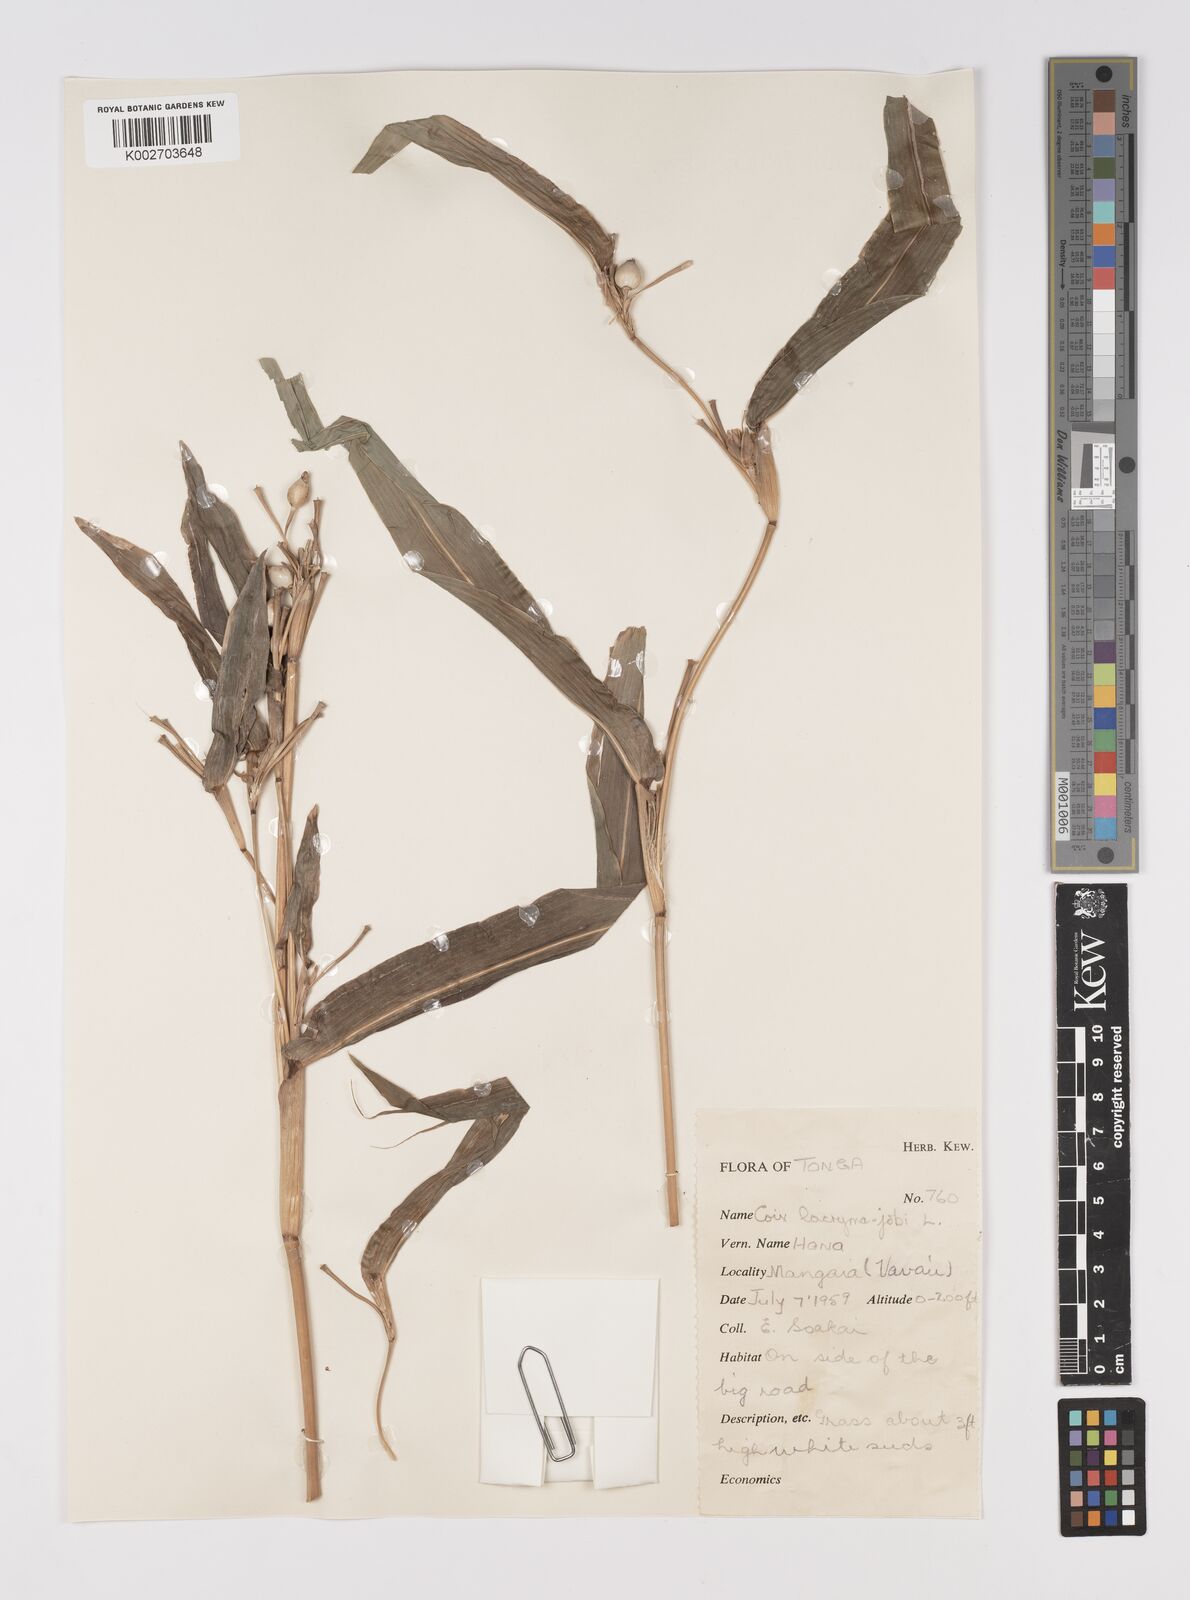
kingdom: Plantae
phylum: Tracheophyta
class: Liliopsida
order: Poales
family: Poaceae
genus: Coix
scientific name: Coix lacryma-jobi
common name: Job's tears
